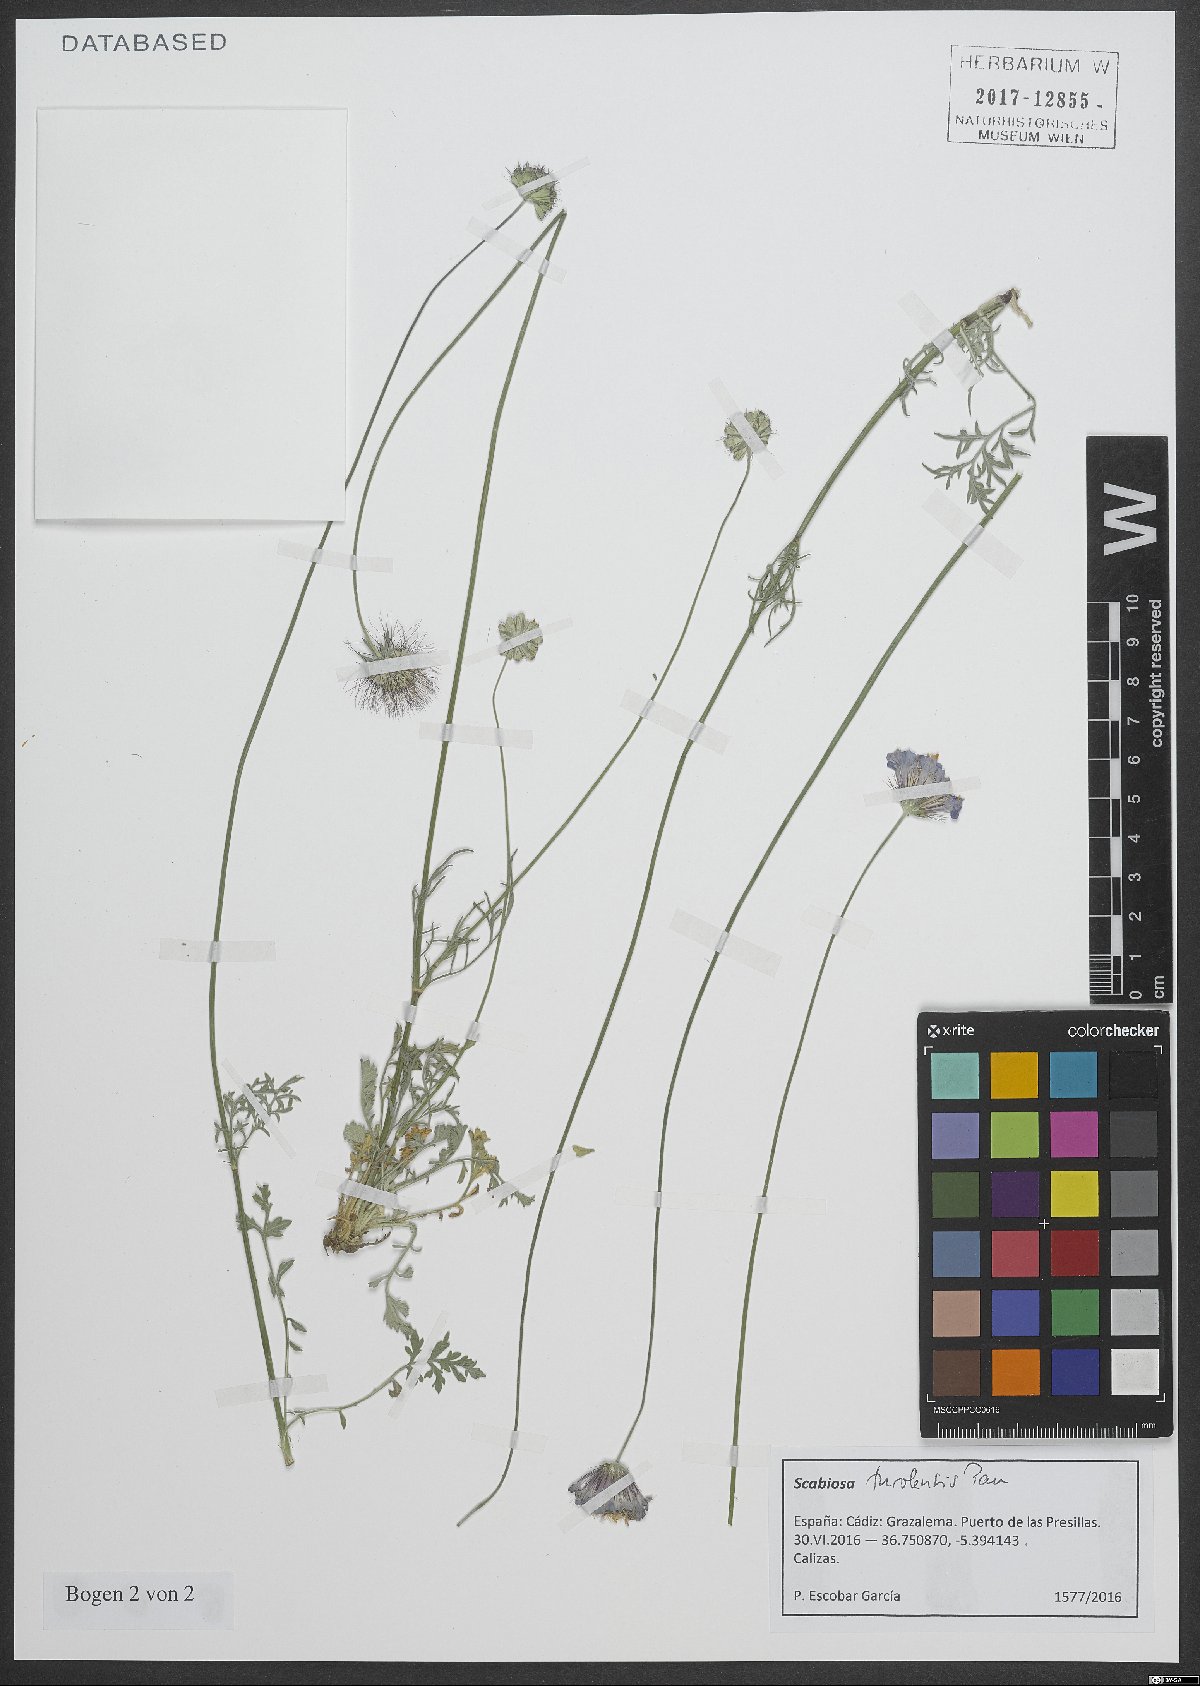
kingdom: Plantae
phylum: Tracheophyta
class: Magnoliopsida
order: Dipsacales
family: Caprifoliaceae
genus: Scabiosa
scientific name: Scabiosa turolensis
